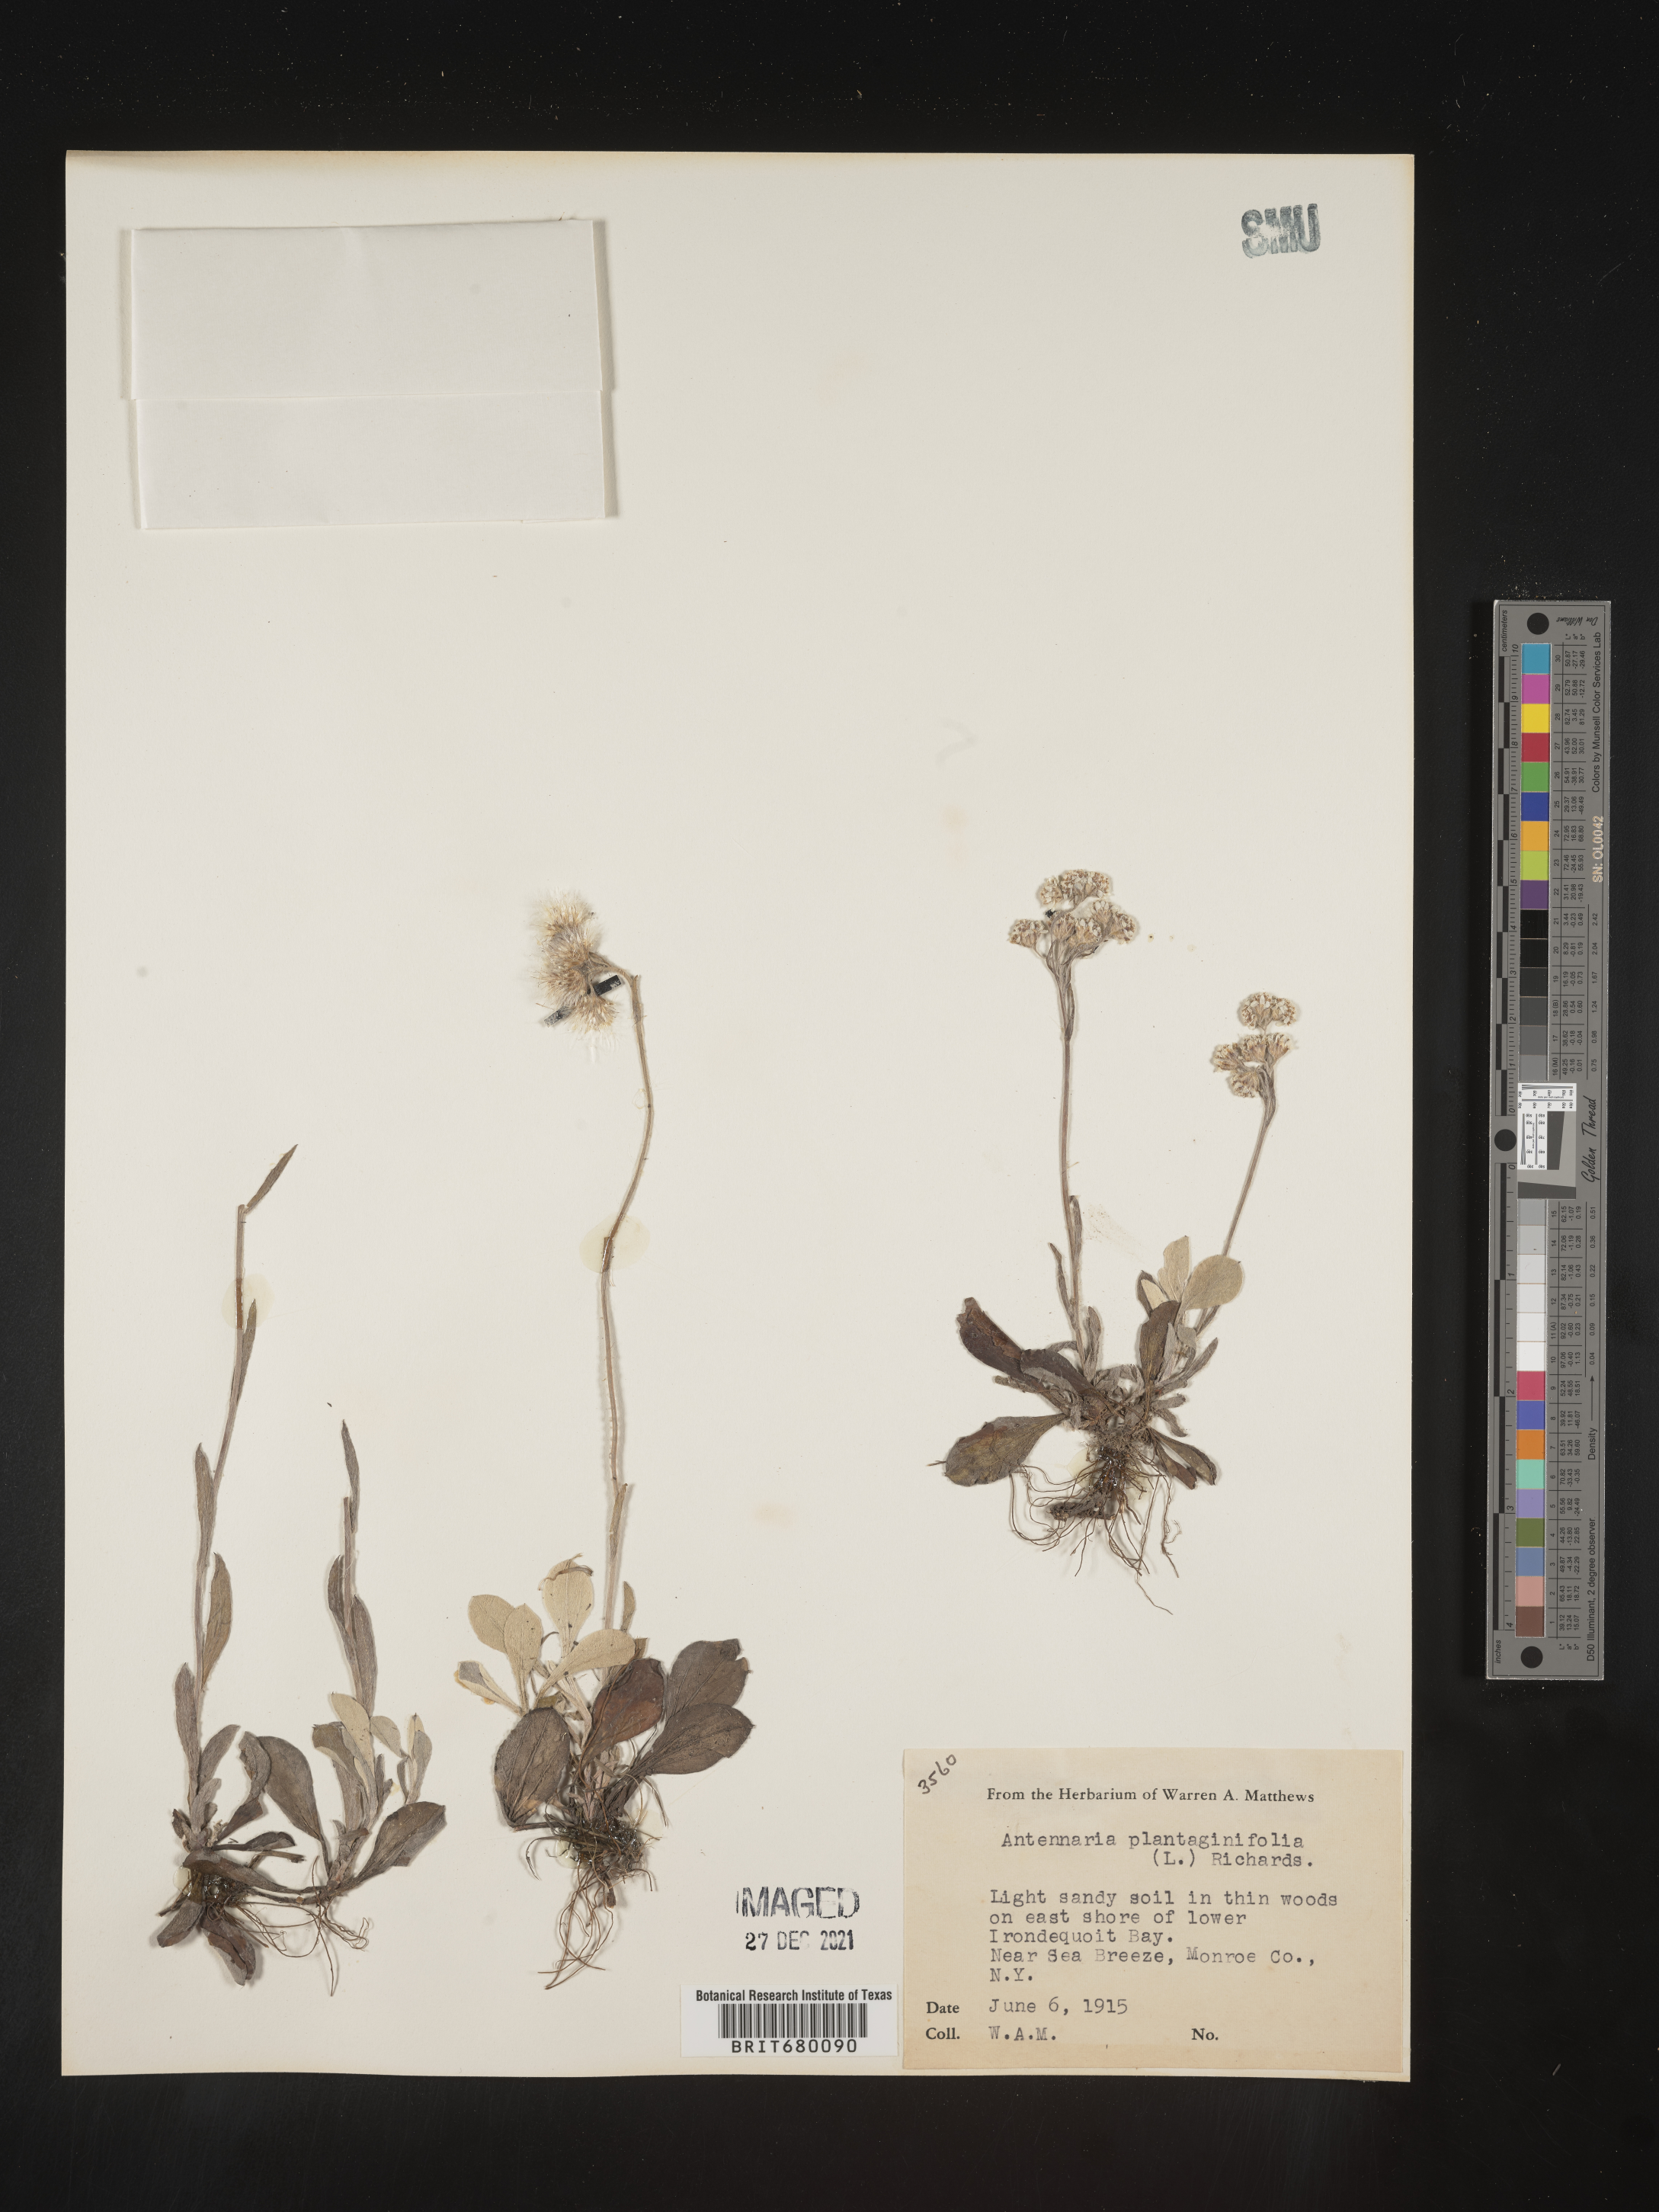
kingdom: Plantae
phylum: Tracheophyta
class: Magnoliopsida
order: Asterales
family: Asteraceae
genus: Antennaria
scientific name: Antennaria plantaginifolia
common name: Plantain-leaved pussytoes
